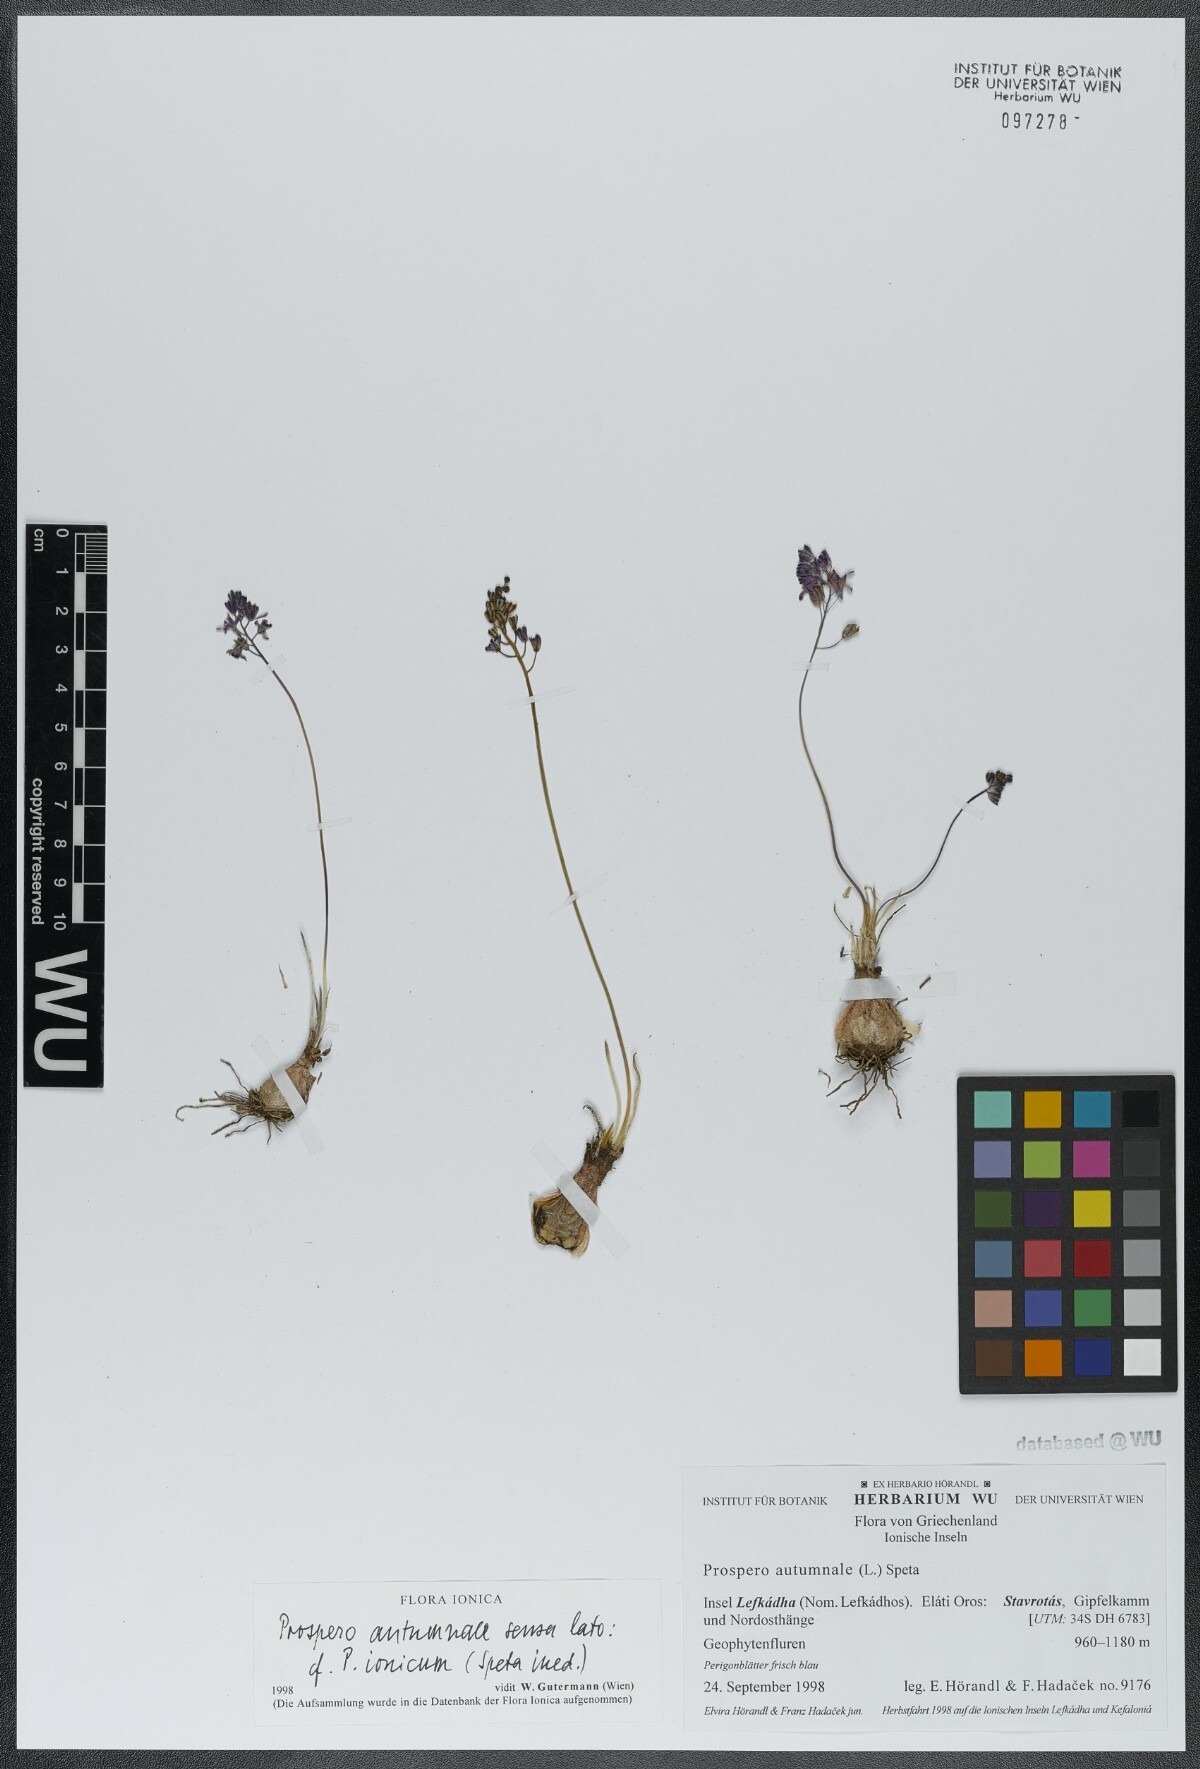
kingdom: Plantae
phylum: Tracheophyta
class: Liliopsida
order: Asparagales
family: Asparagaceae
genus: Prospero
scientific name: Prospero autumnale
